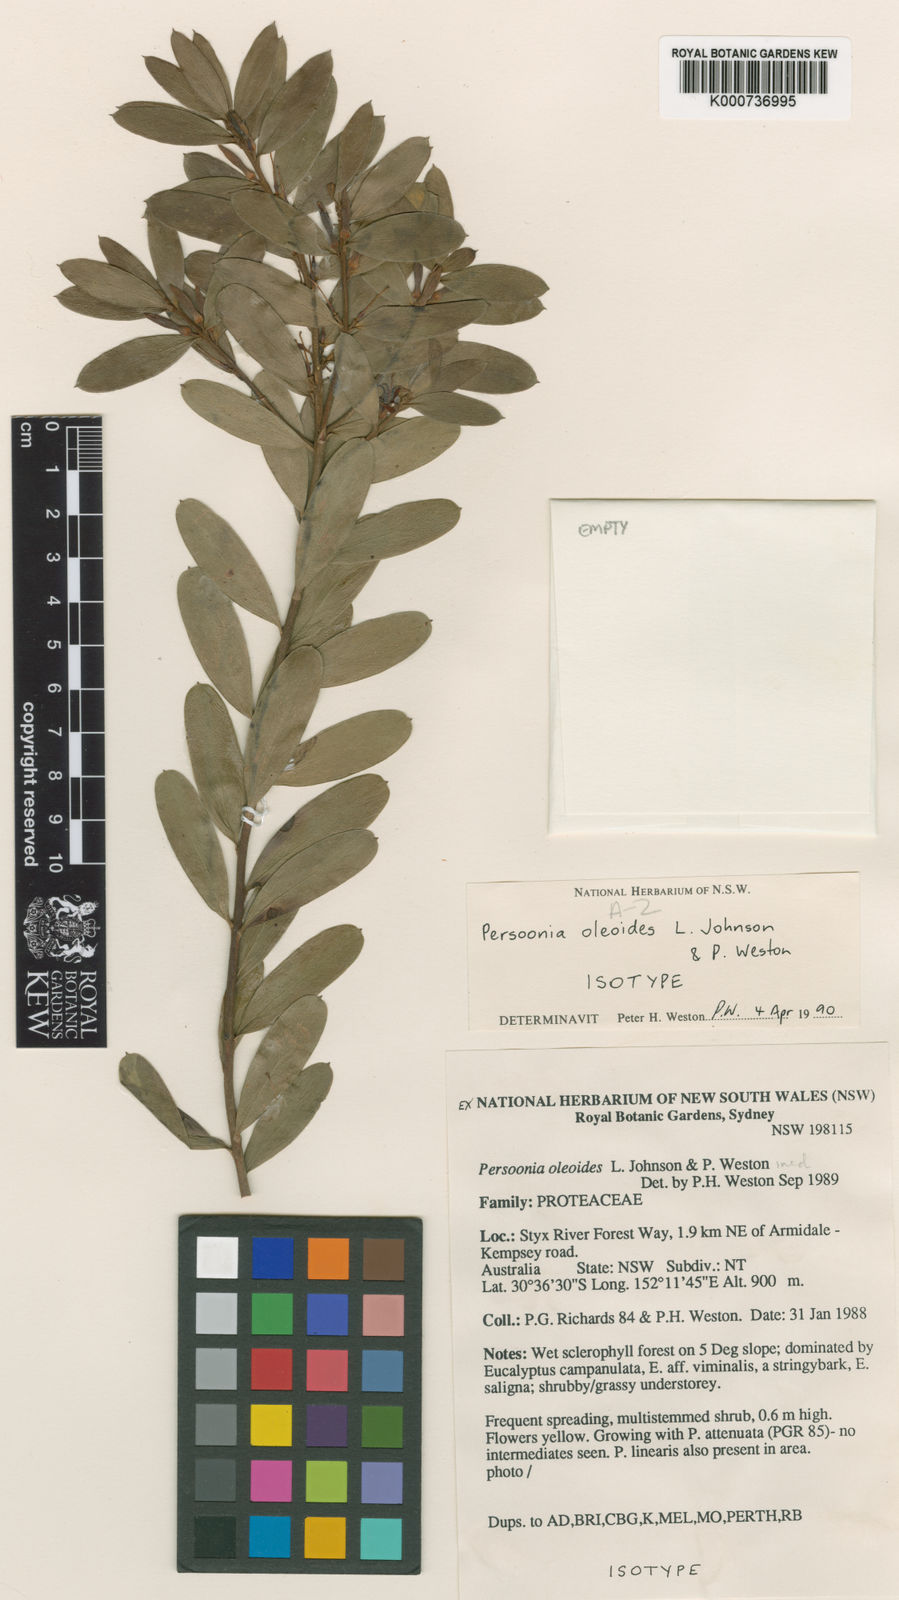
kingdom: Plantae
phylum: Tracheophyta
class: Magnoliopsida
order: Proteales
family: Proteaceae
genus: Persoonia
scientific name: Persoonia oleoides
